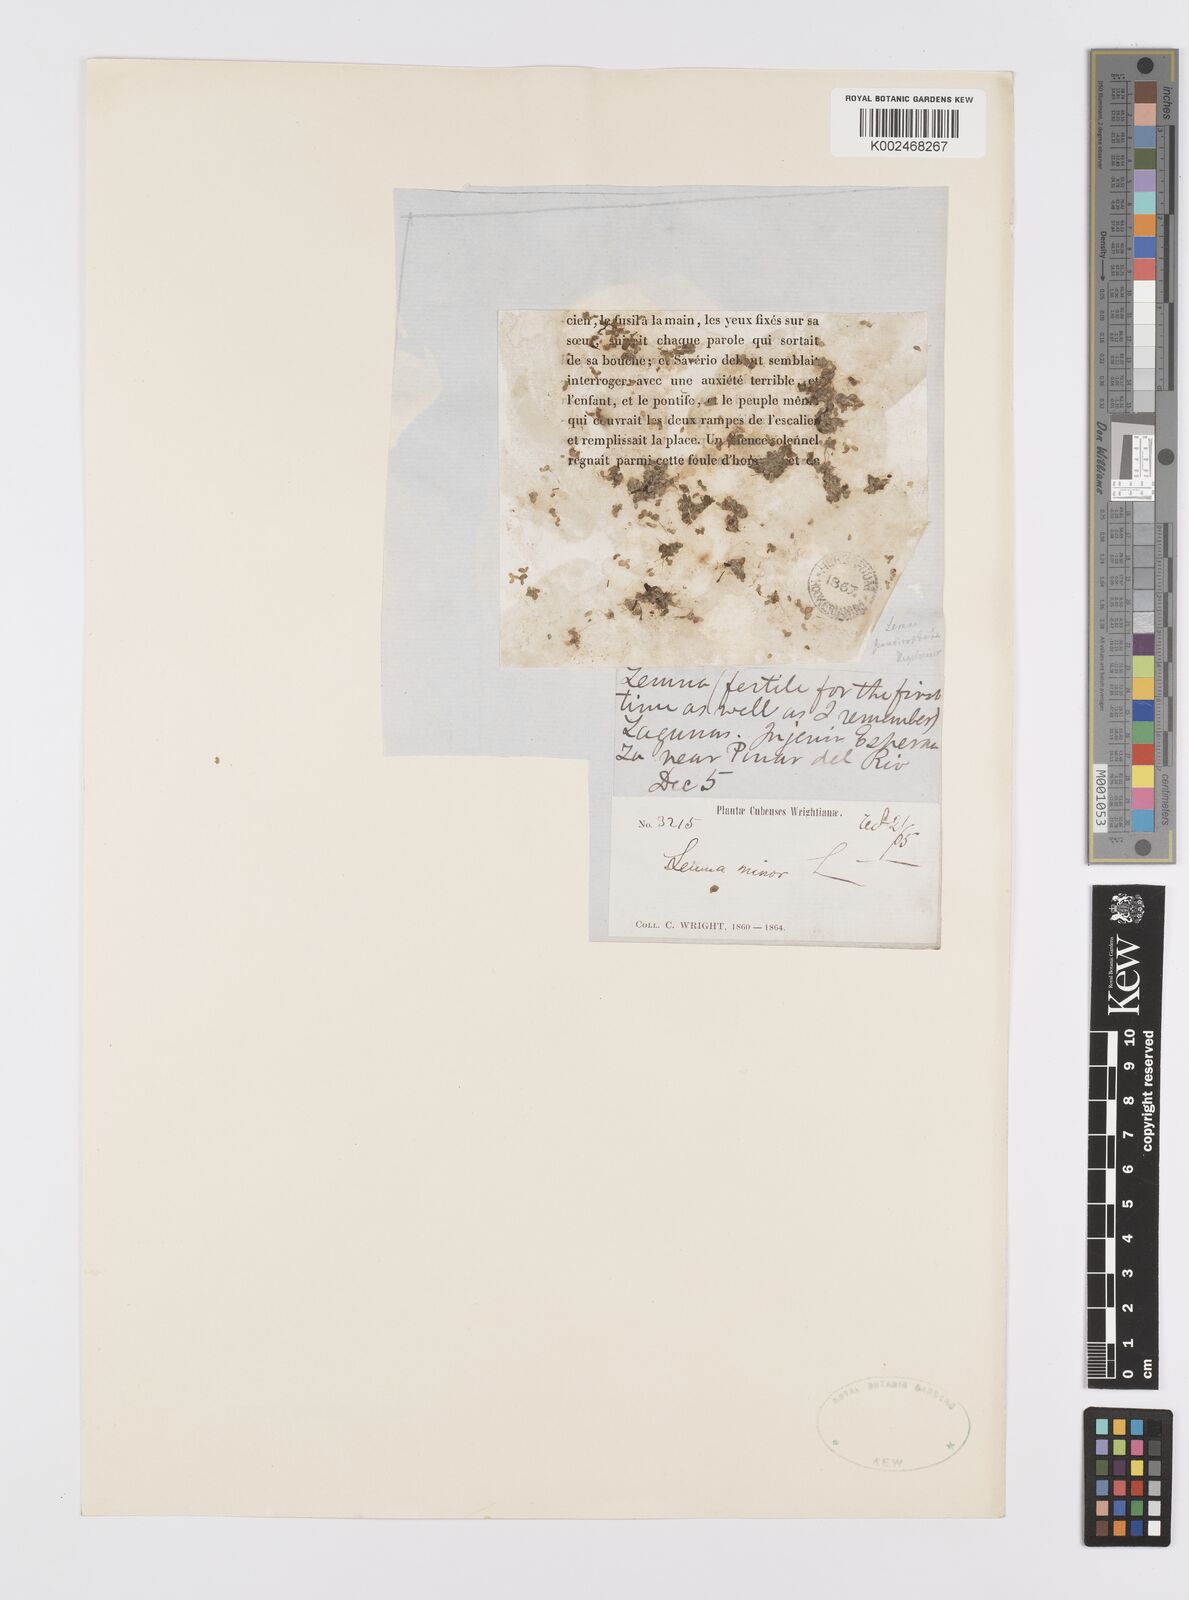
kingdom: Plantae
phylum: Tracheophyta
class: Liliopsida
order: Alismatales
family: Araceae
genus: Lemna
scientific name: Lemna minor
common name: Common duckweed
